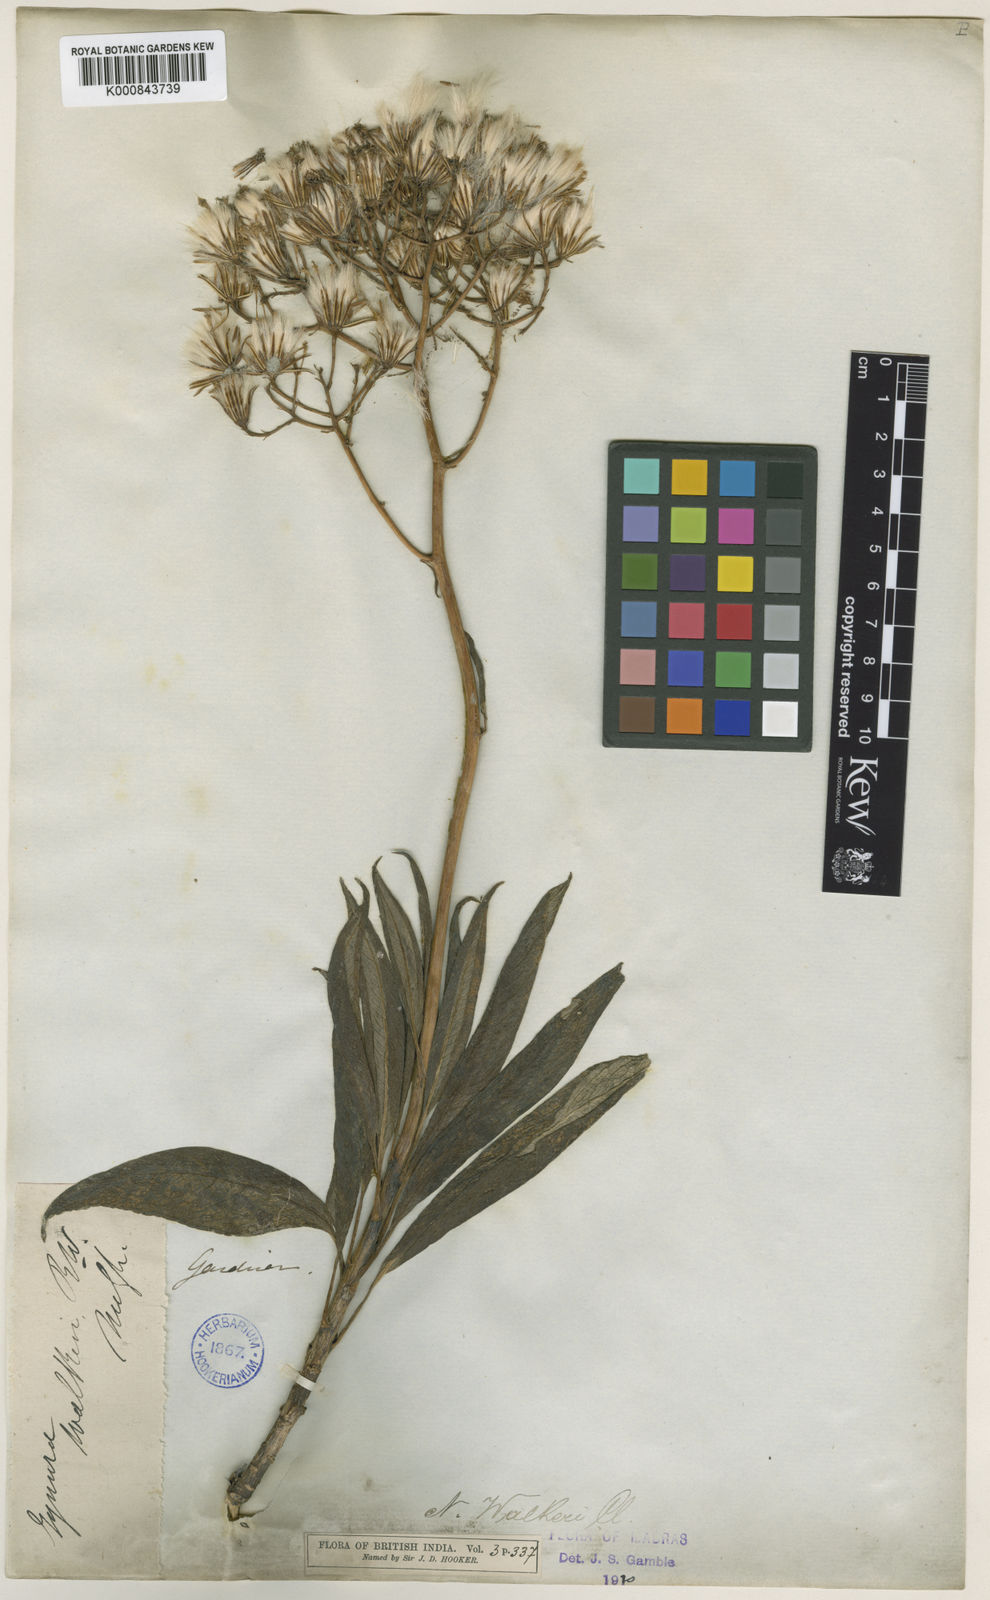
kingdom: Plantae
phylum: Tracheophyta
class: Magnoliopsida
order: Asterales
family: Asteraceae
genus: Kleinia
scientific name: Kleinia
